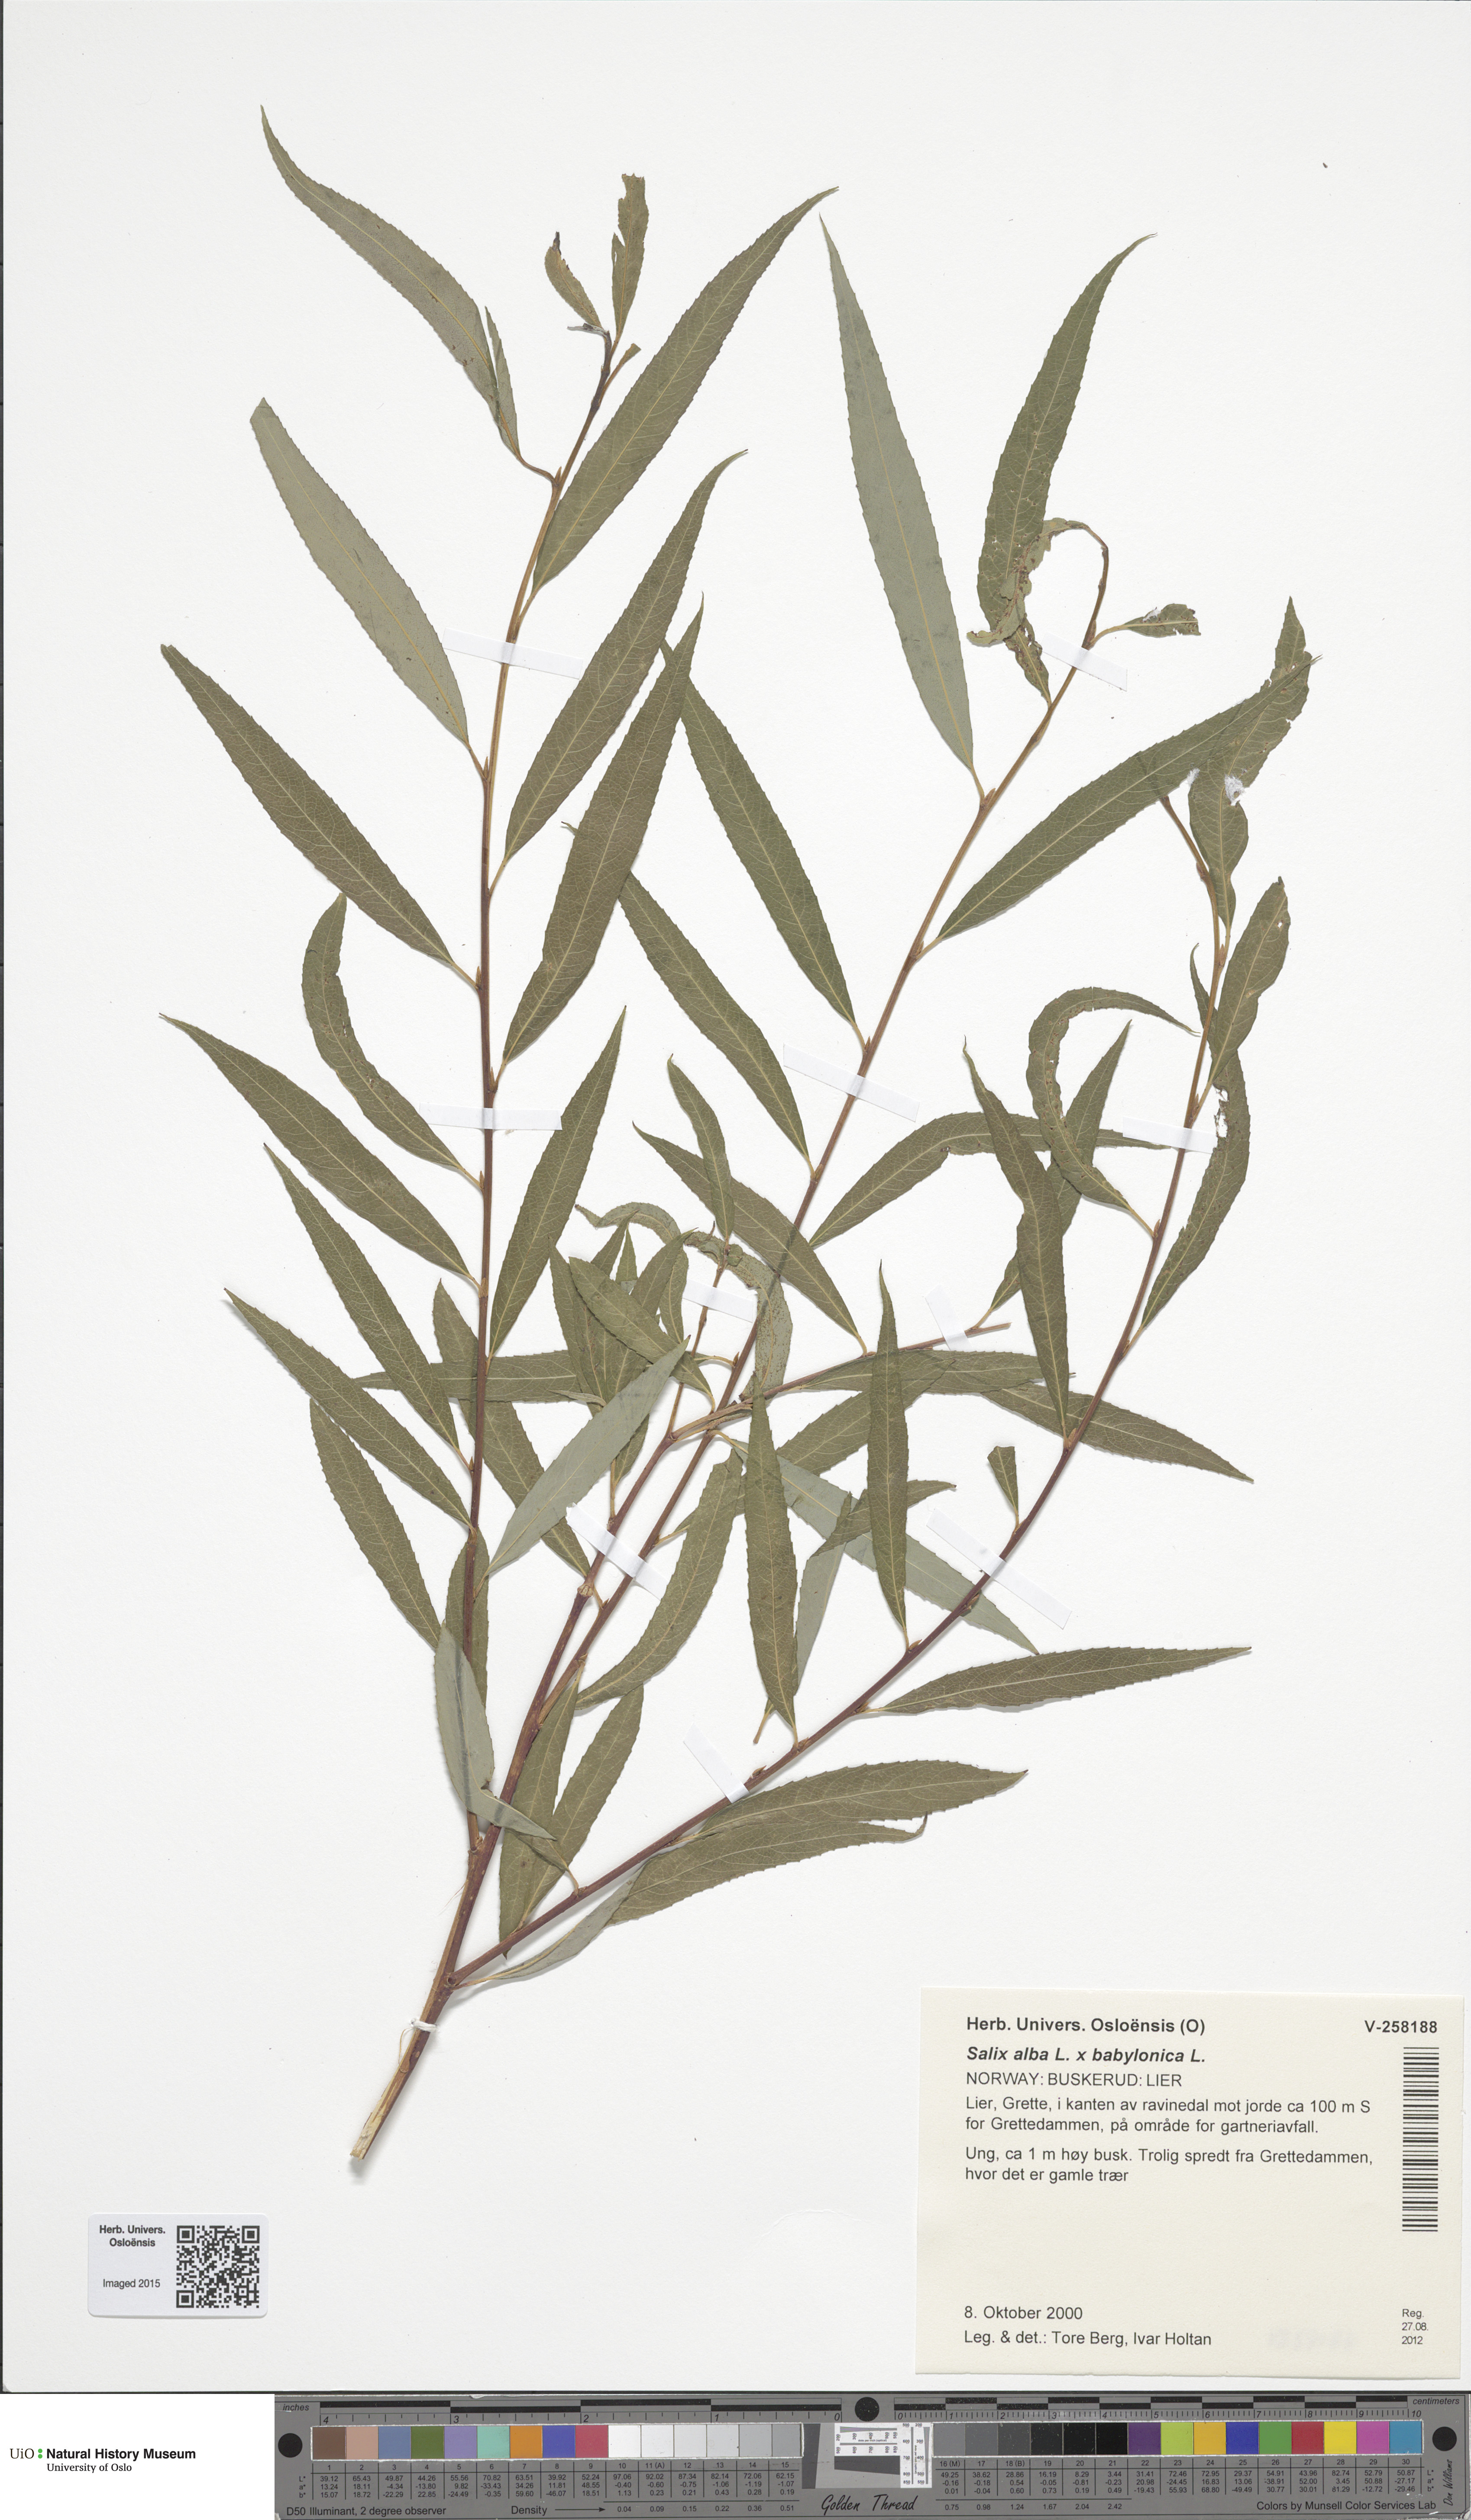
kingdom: Plantae
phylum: Tracheophyta
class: Magnoliopsida
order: Malpighiales
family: Salicaceae
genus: Salix
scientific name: Salix pendulina
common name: Wisconsin weeping willow
